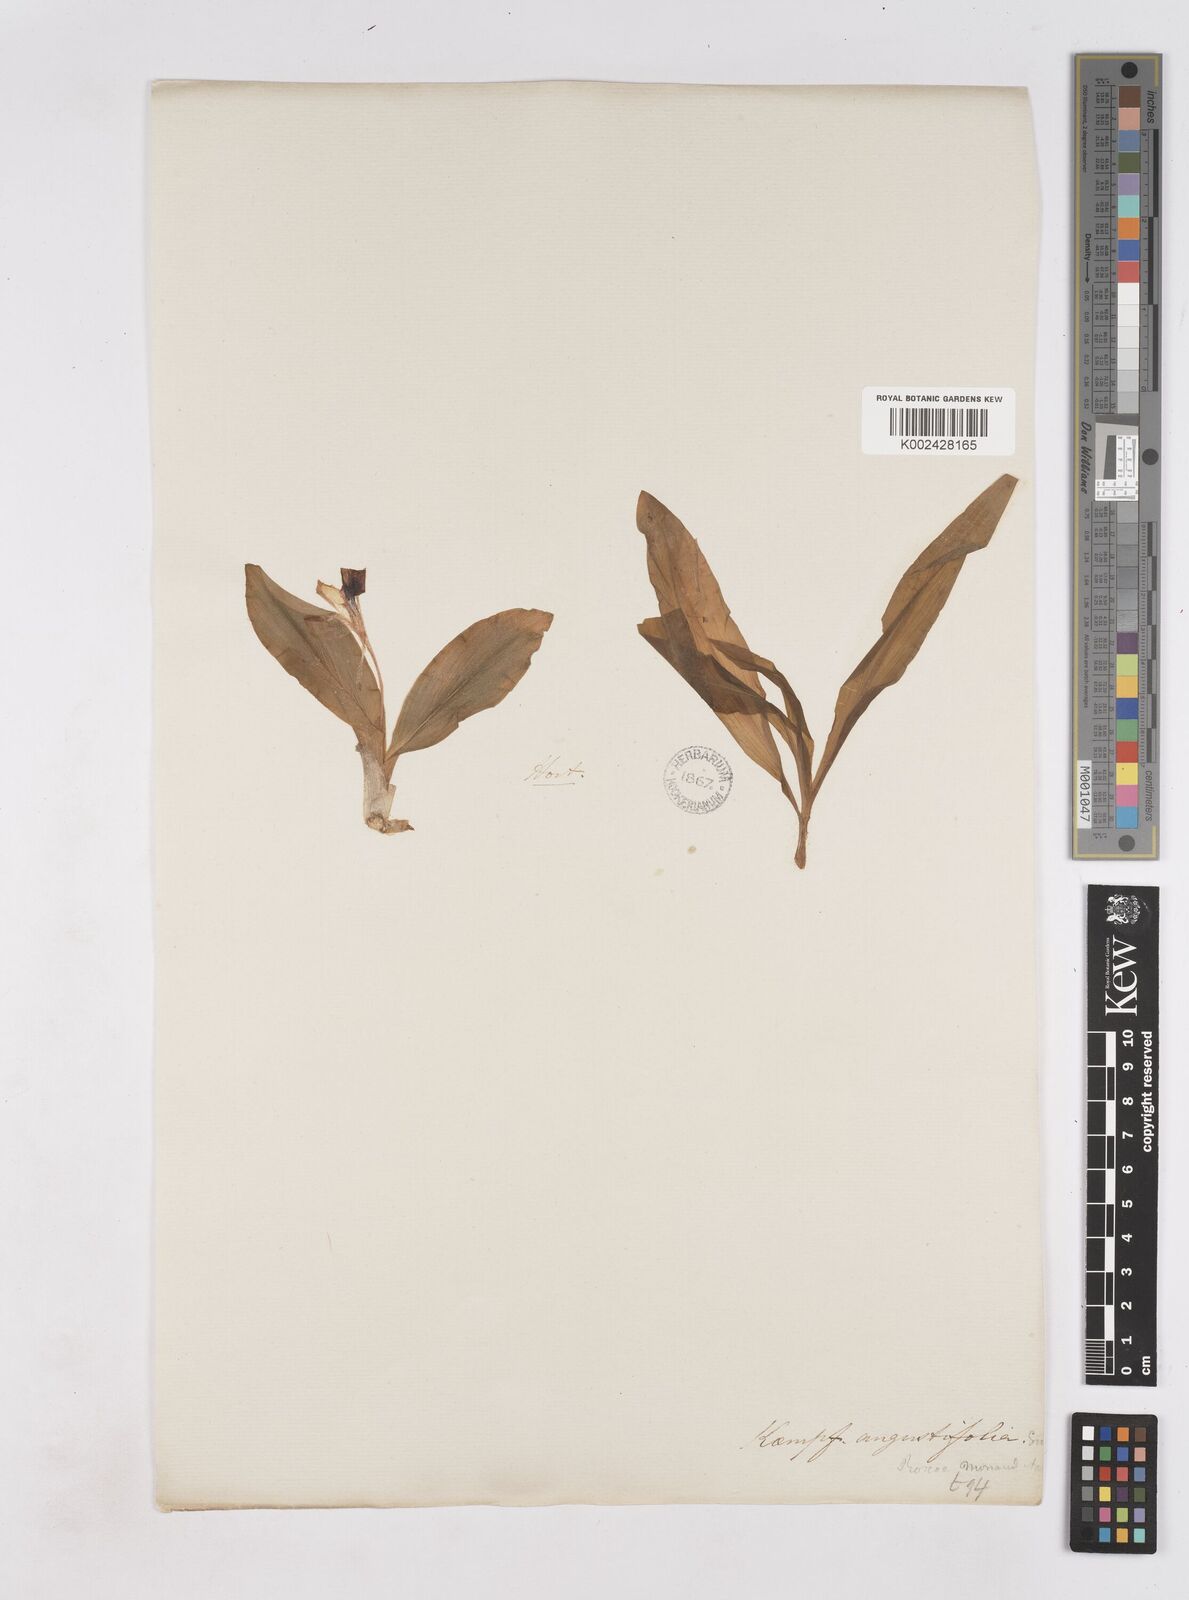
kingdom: Plantae
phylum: Tracheophyta
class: Liliopsida
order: Zingiberales
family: Zingiberaceae
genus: Kaempferia
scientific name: Kaempferia angustifolia
